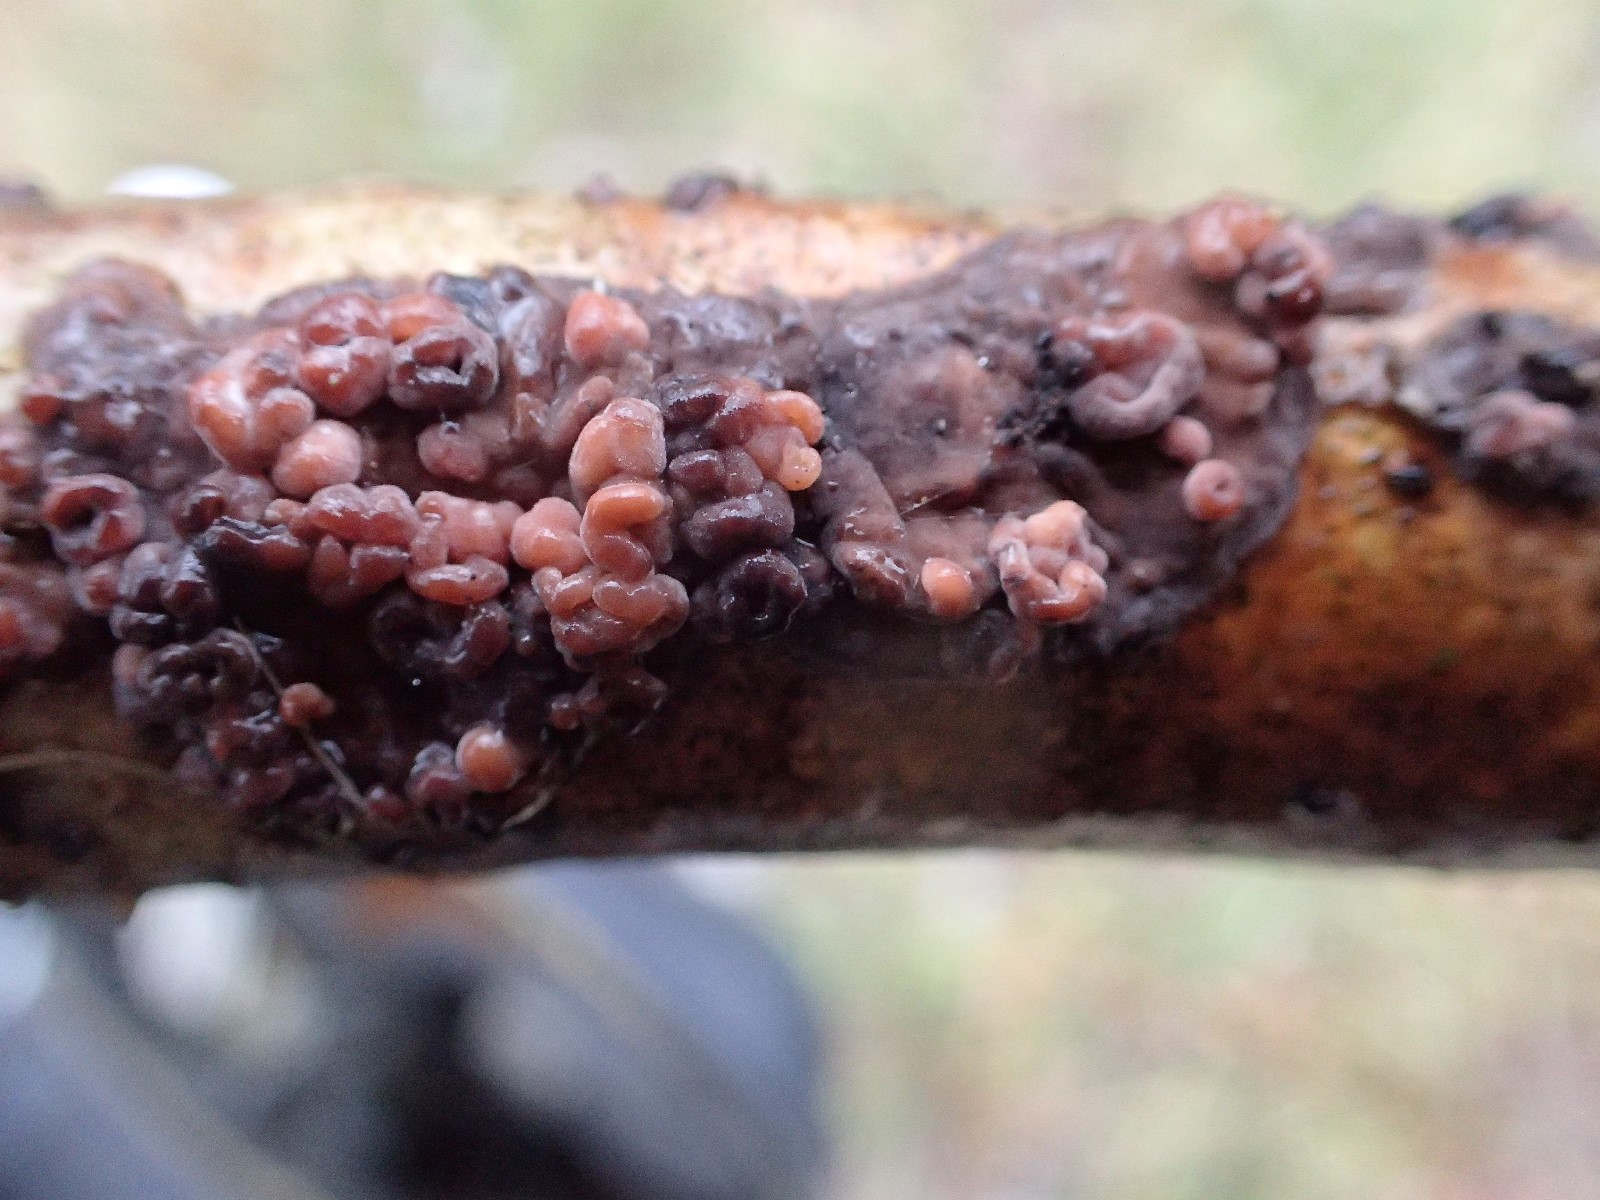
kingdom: Fungi
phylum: Basidiomycota
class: Agaricomycetes
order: Russulales
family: Peniophoraceae
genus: Peniophora
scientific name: Peniophora quercina
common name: ege-voksskind
